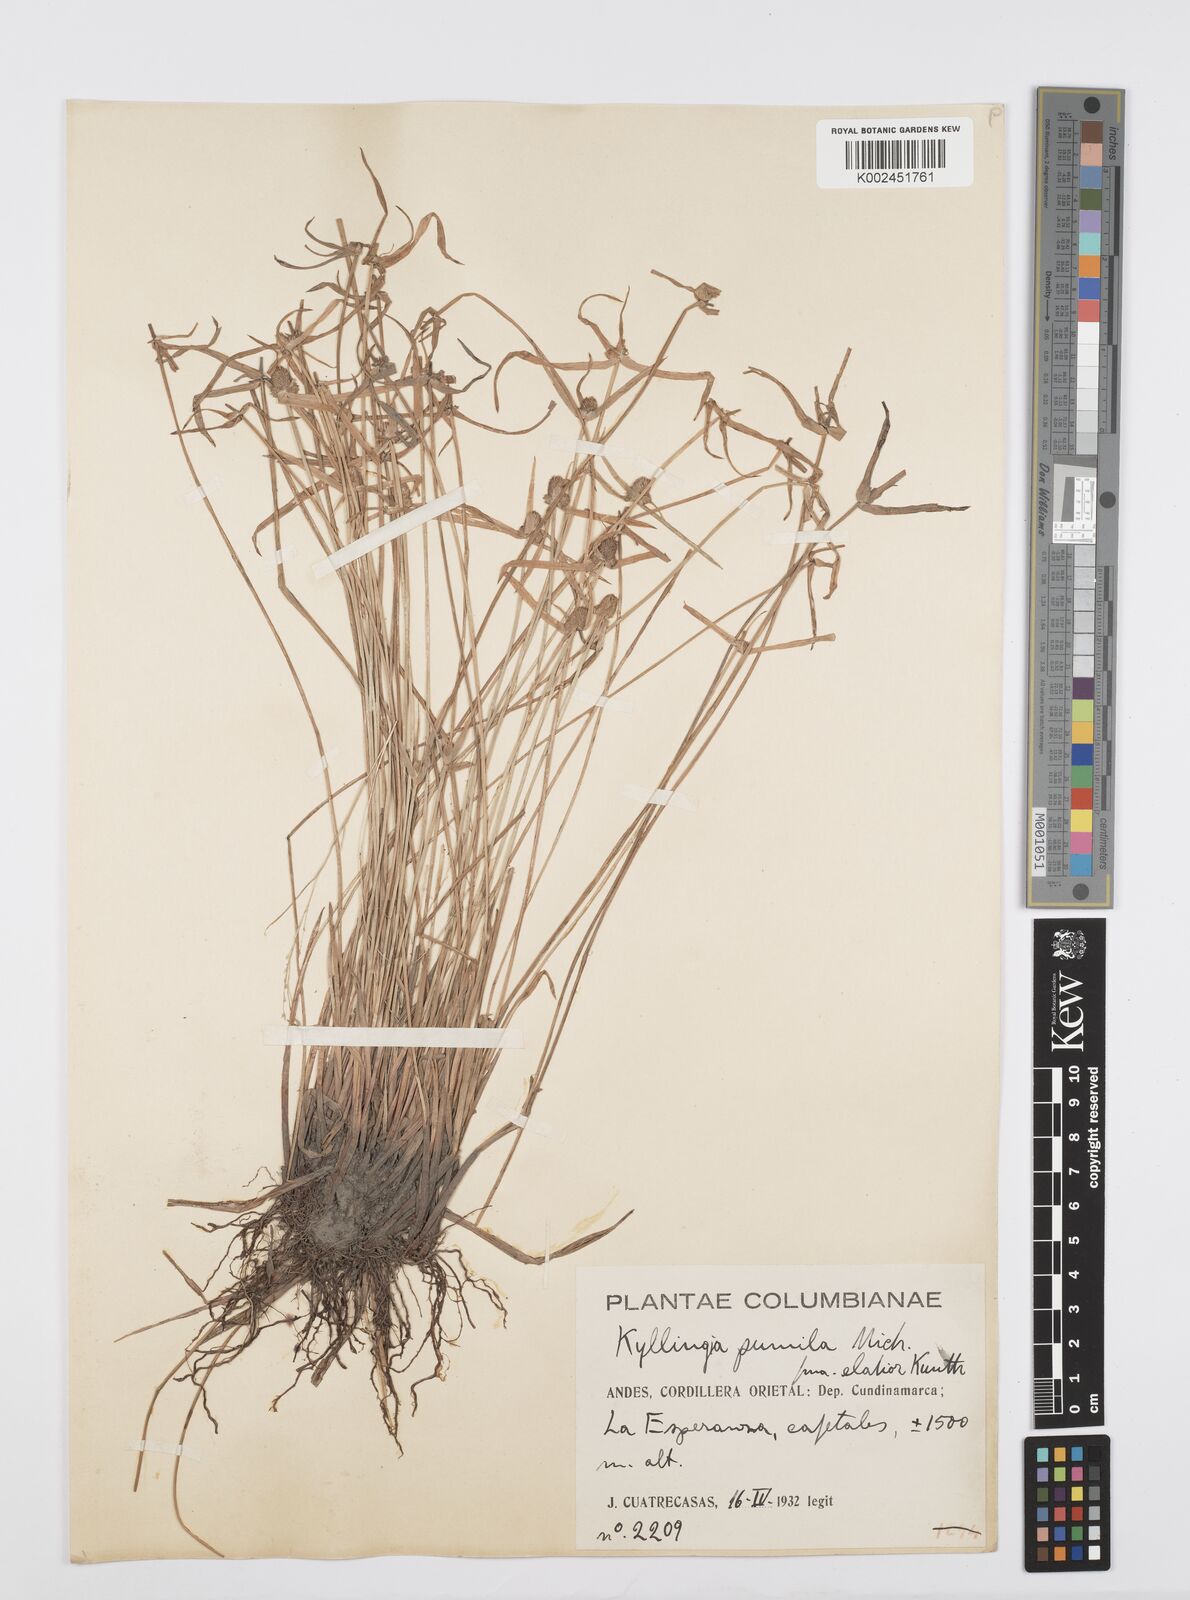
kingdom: Plantae
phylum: Tracheophyta
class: Liliopsida
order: Poales
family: Cyperaceae
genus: Cyperus
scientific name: Cyperus
